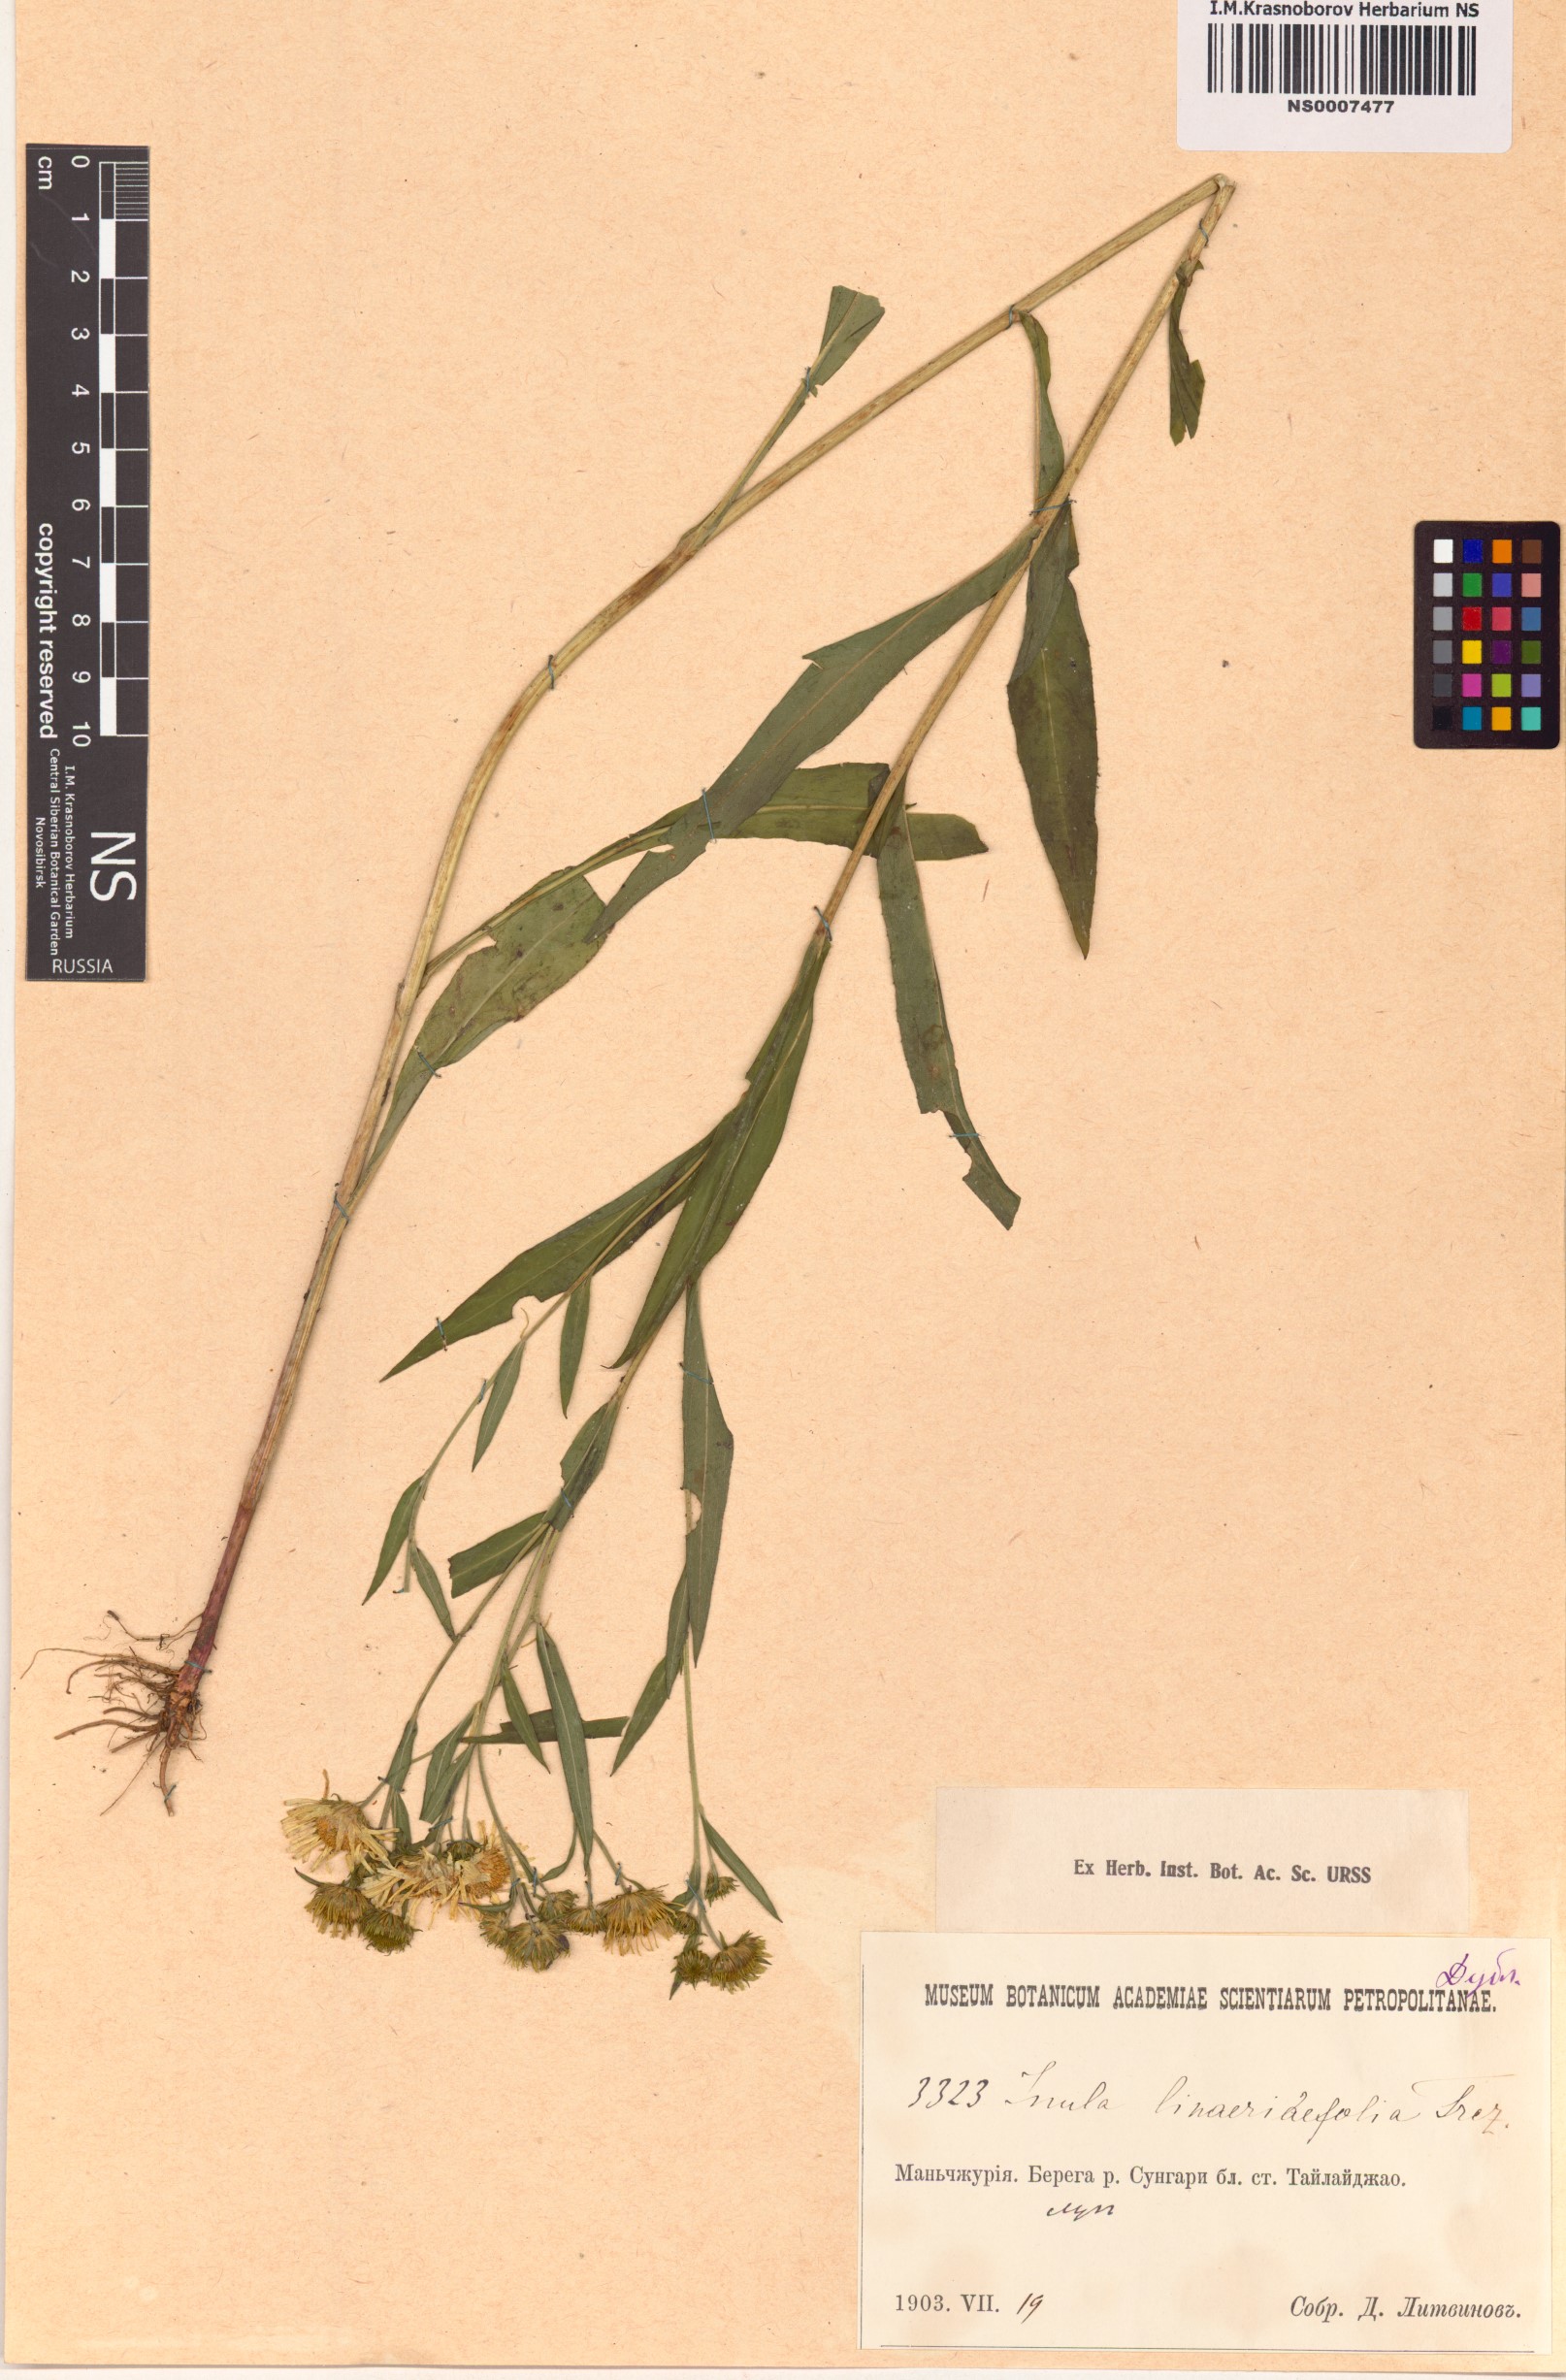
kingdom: Plantae
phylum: Tracheophyta
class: Magnoliopsida
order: Asterales
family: Asteraceae
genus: Inula
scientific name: Inula linariifolia
